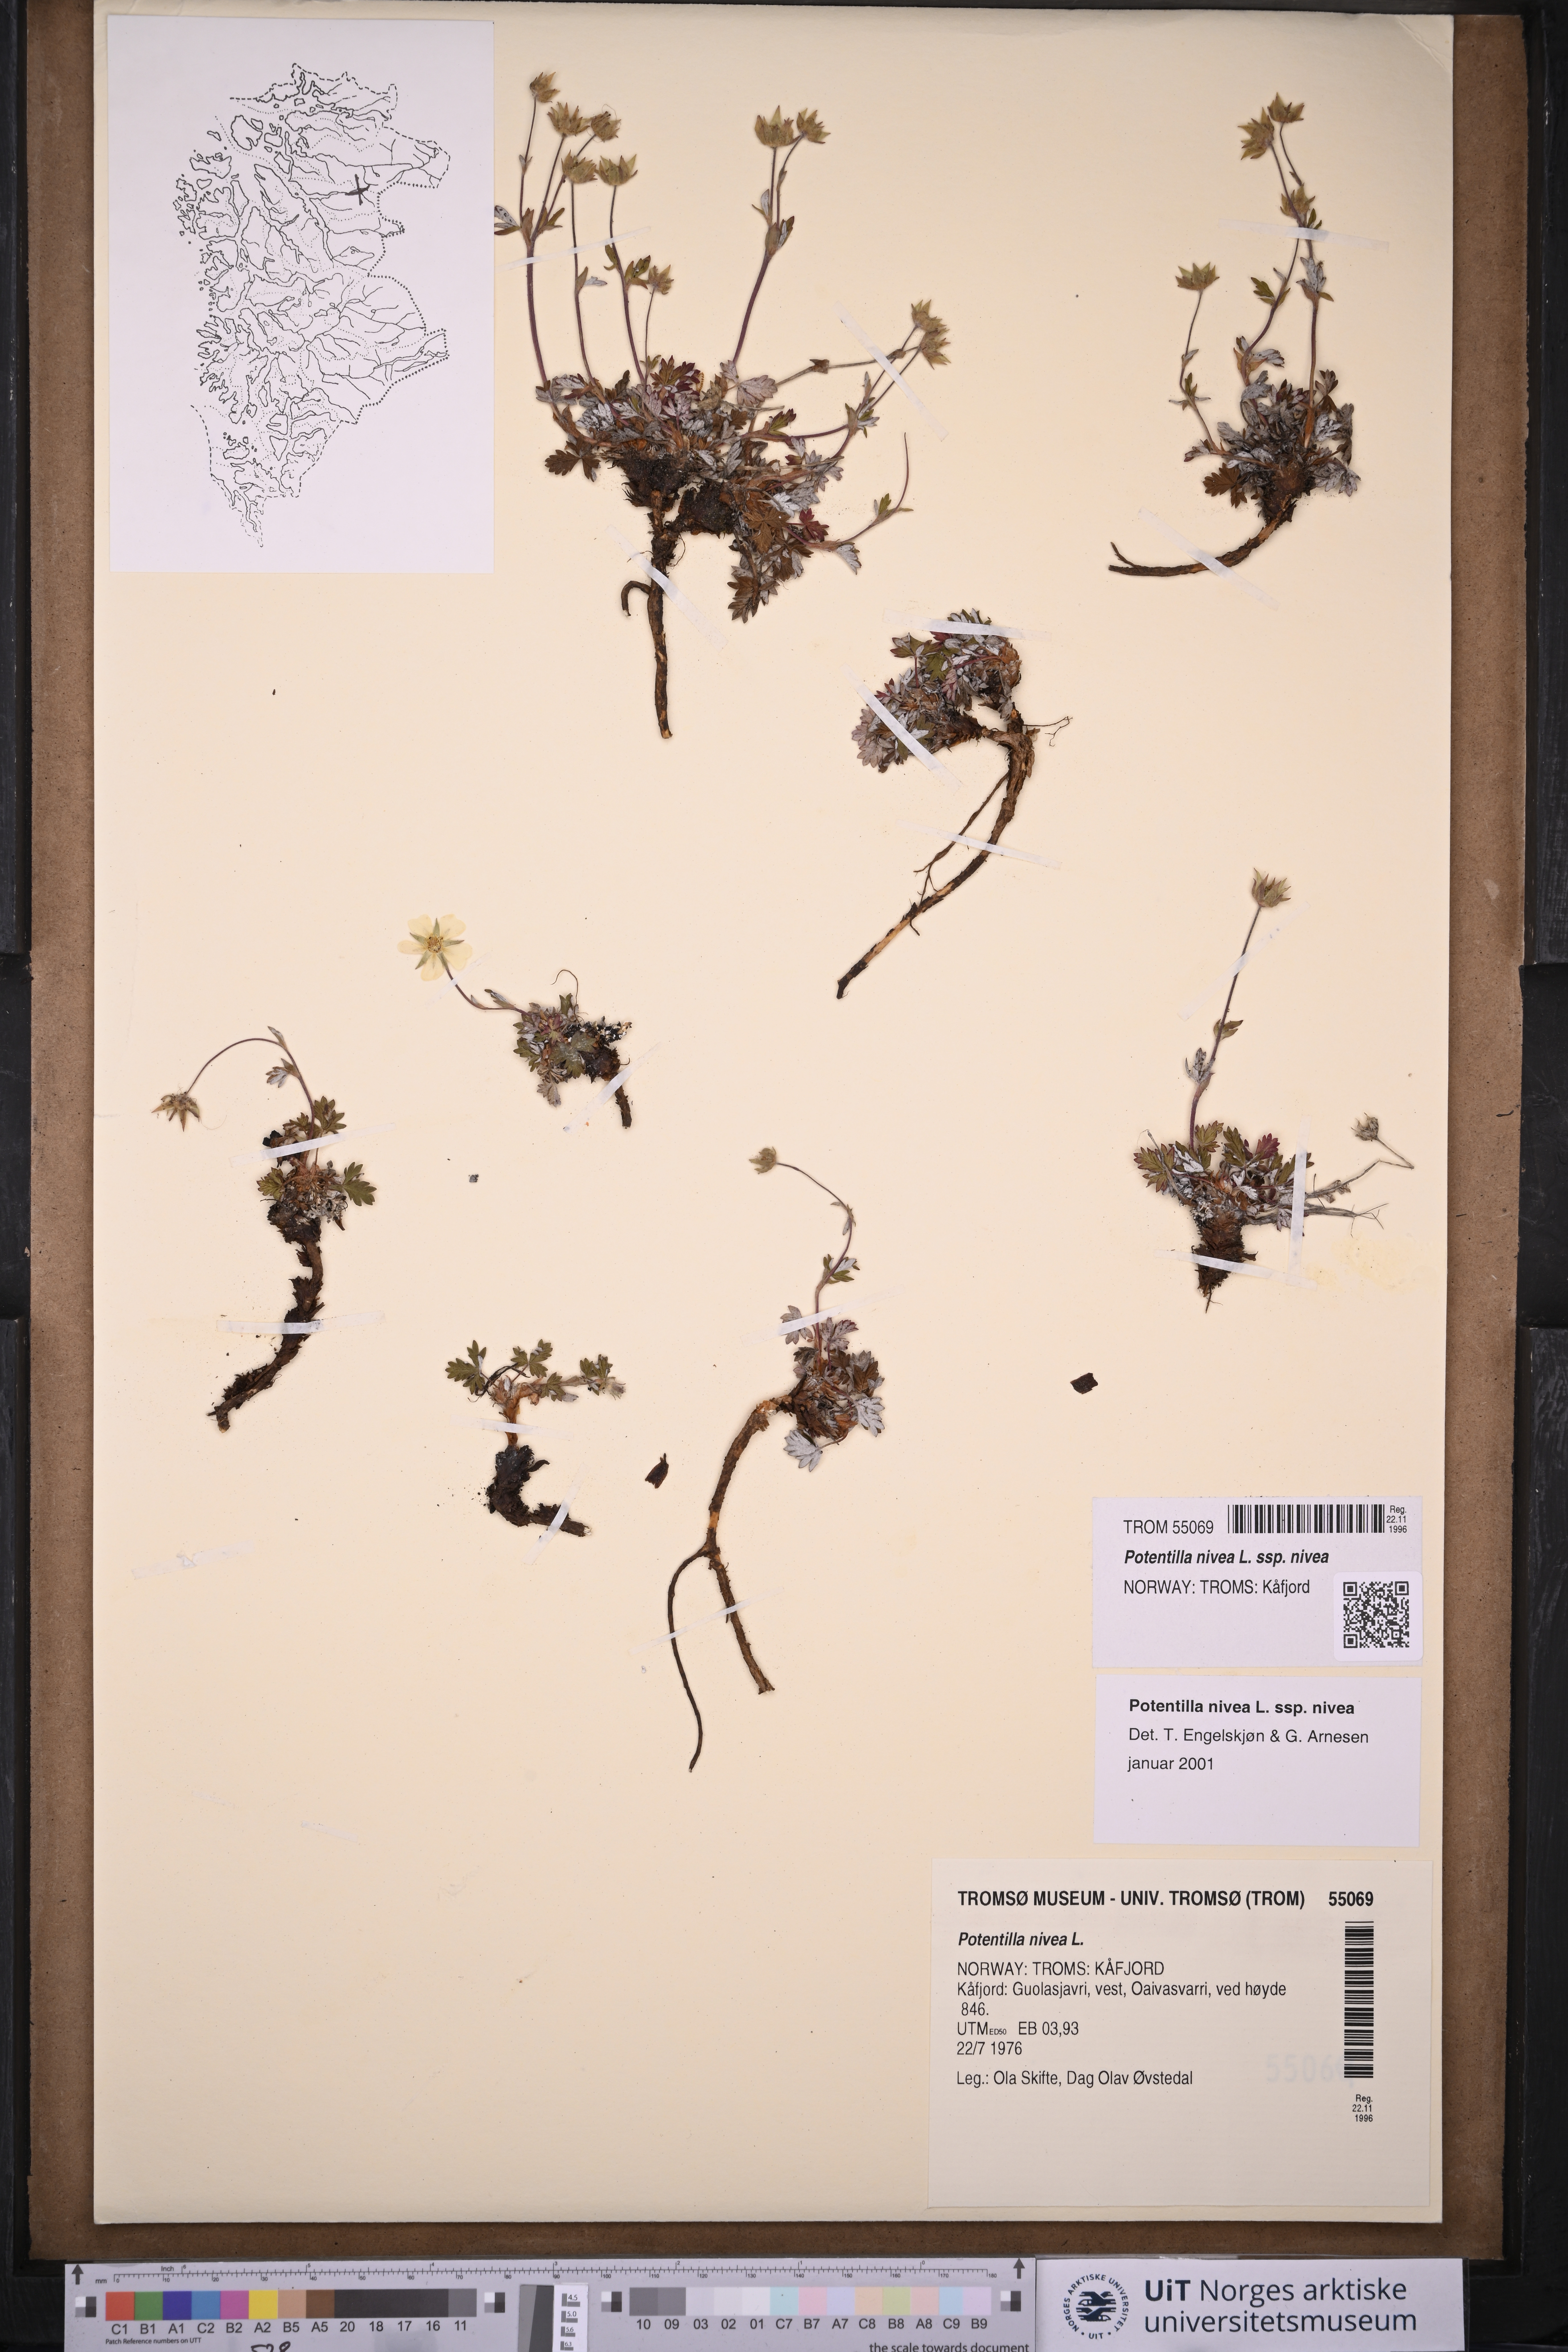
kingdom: Plantae
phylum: Tracheophyta
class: Magnoliopsida
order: Rosales
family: Rosaceae
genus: Potentilla
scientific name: Potentilla nivea
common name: Snow cinquefoil
